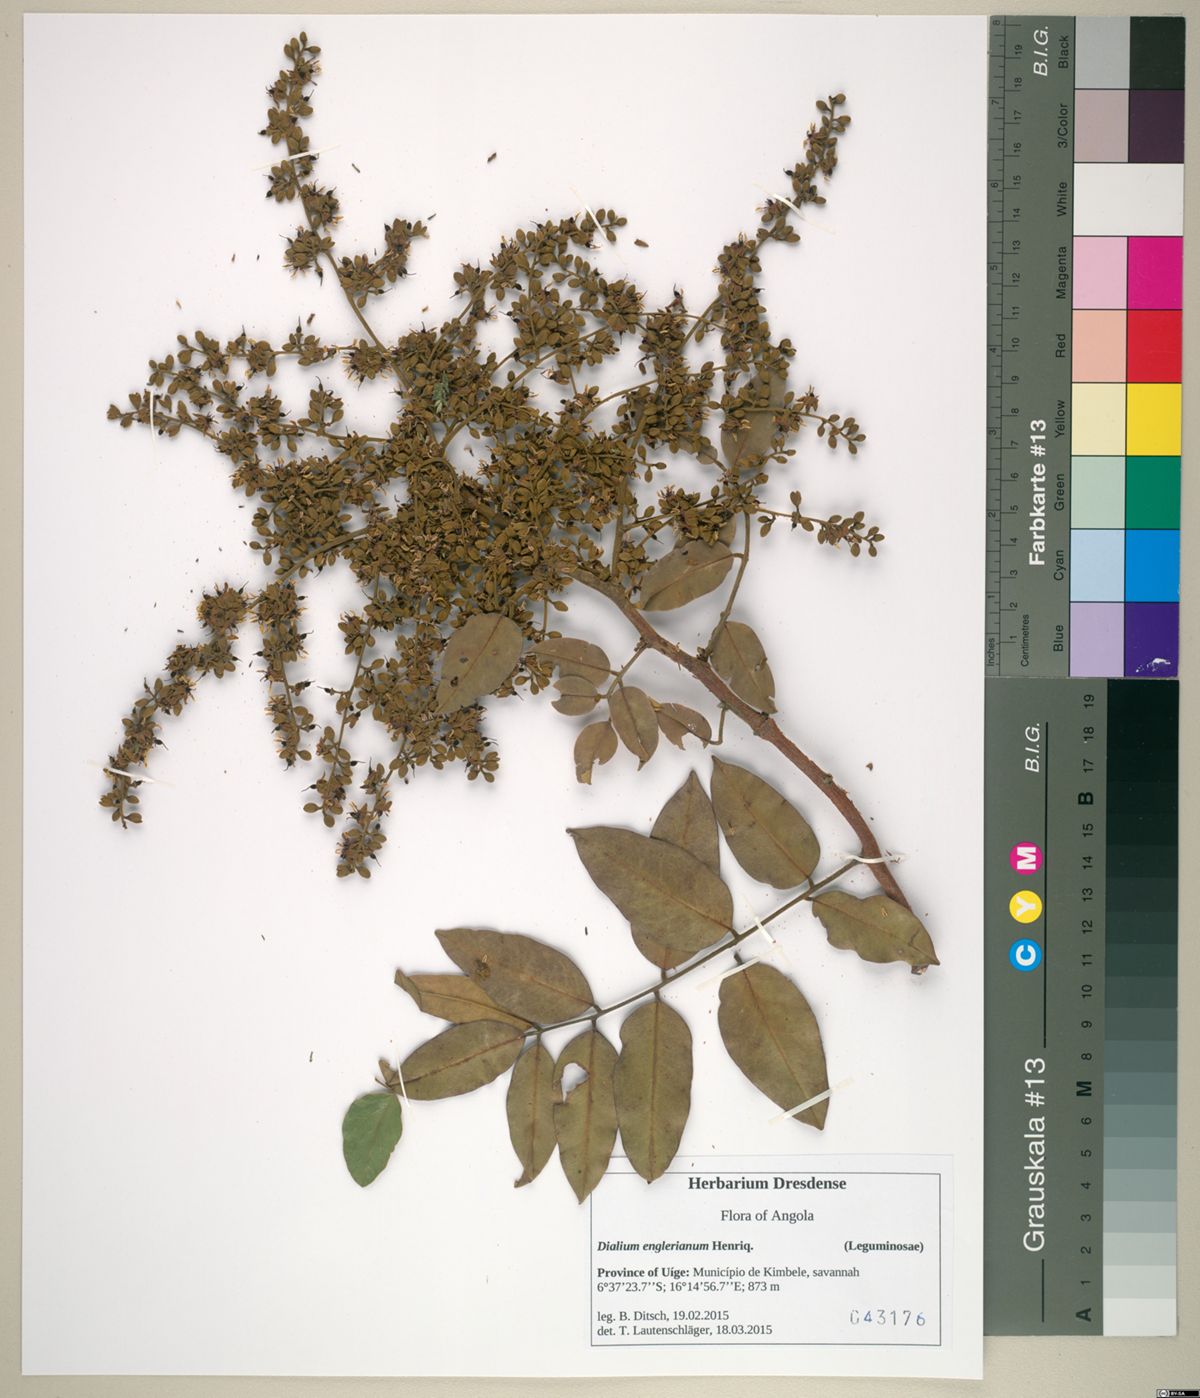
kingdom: Plantae
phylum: Tracheophyta
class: Magnoliopsida
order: Fabales
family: Fabaceae
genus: Dialium
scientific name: Dialium englerianum
